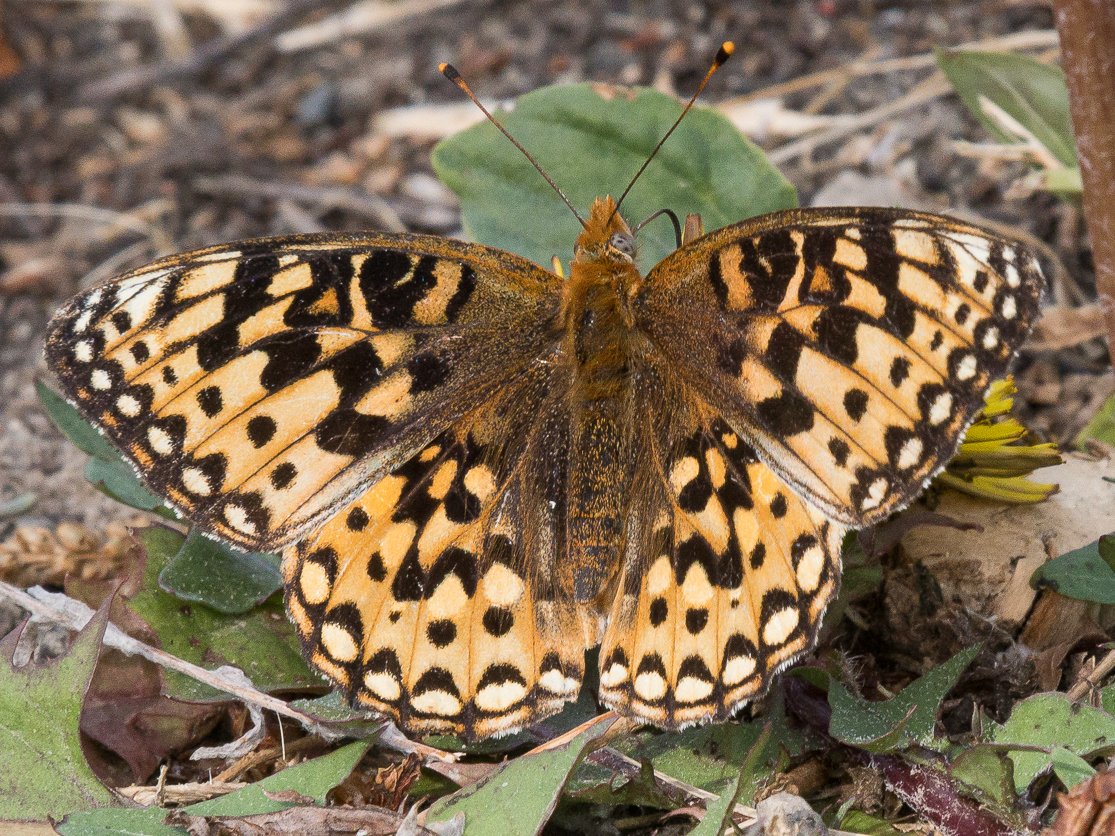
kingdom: Animalia
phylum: Arthropoda
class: Insecta
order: Lepidoptera
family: Nymphalidae
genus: Speyeria
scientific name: Speyeria hydaspe
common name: Hydaspe Fritillary
